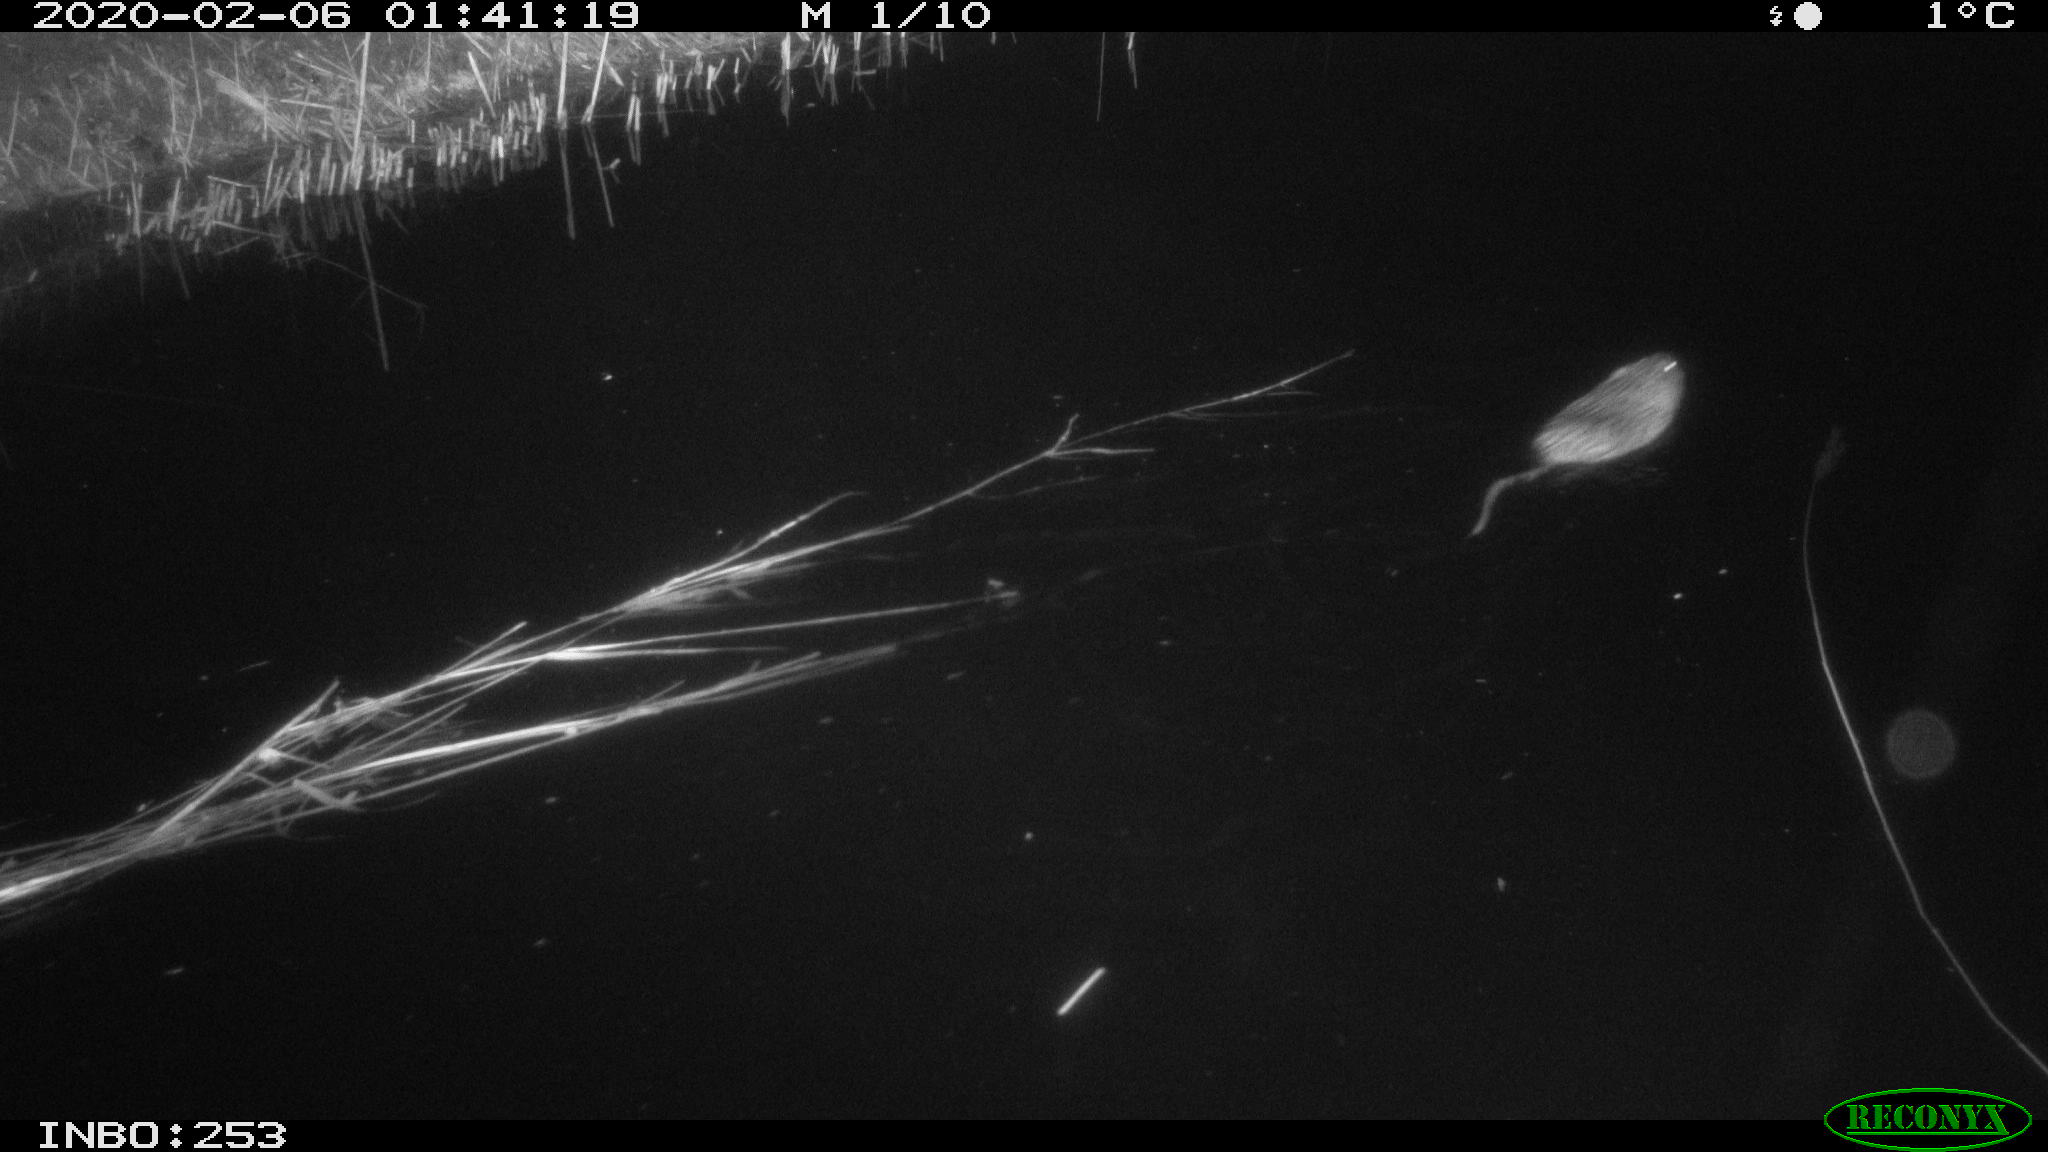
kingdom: Animalia
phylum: Chordata
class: Mammalia
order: Rodentia
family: Cricetidae
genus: Ondatra
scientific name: Ondatra zibethicus
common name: Muskrat
